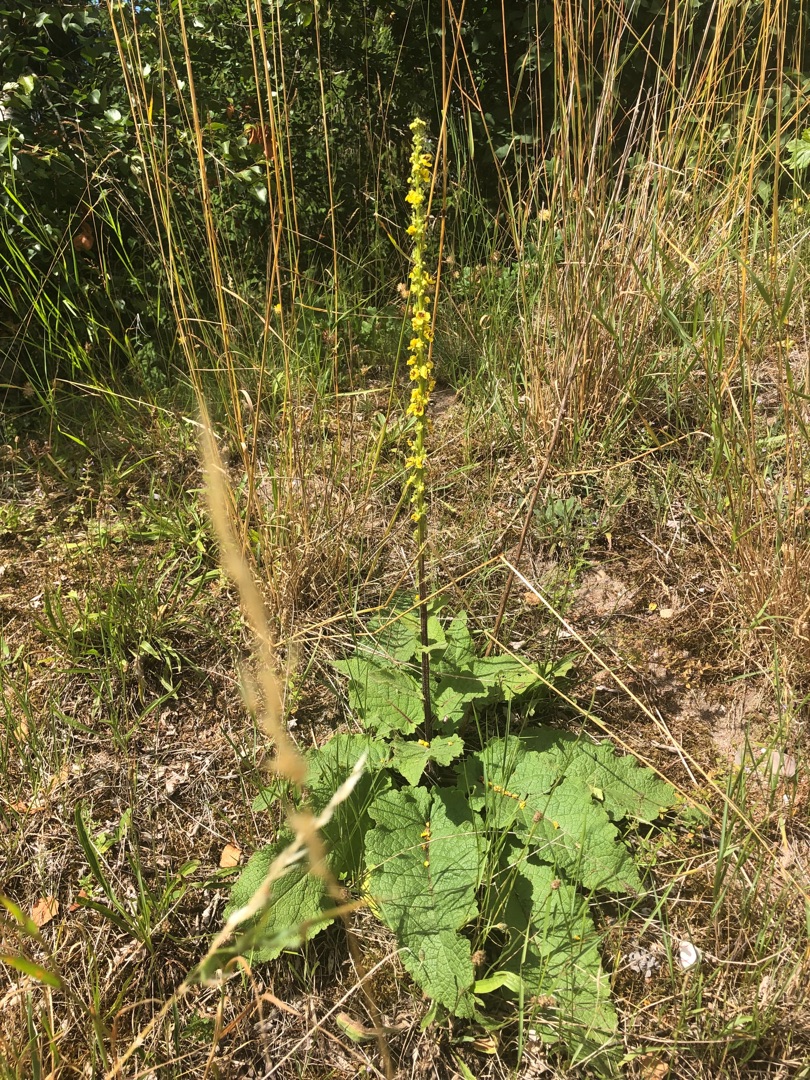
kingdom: Plantae
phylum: Tracheophyta
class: Magnoliopsida
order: Lamiales
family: Scrophulariaceae
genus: Verbascum
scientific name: Verbascum nigrum
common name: Mørk kongelys
